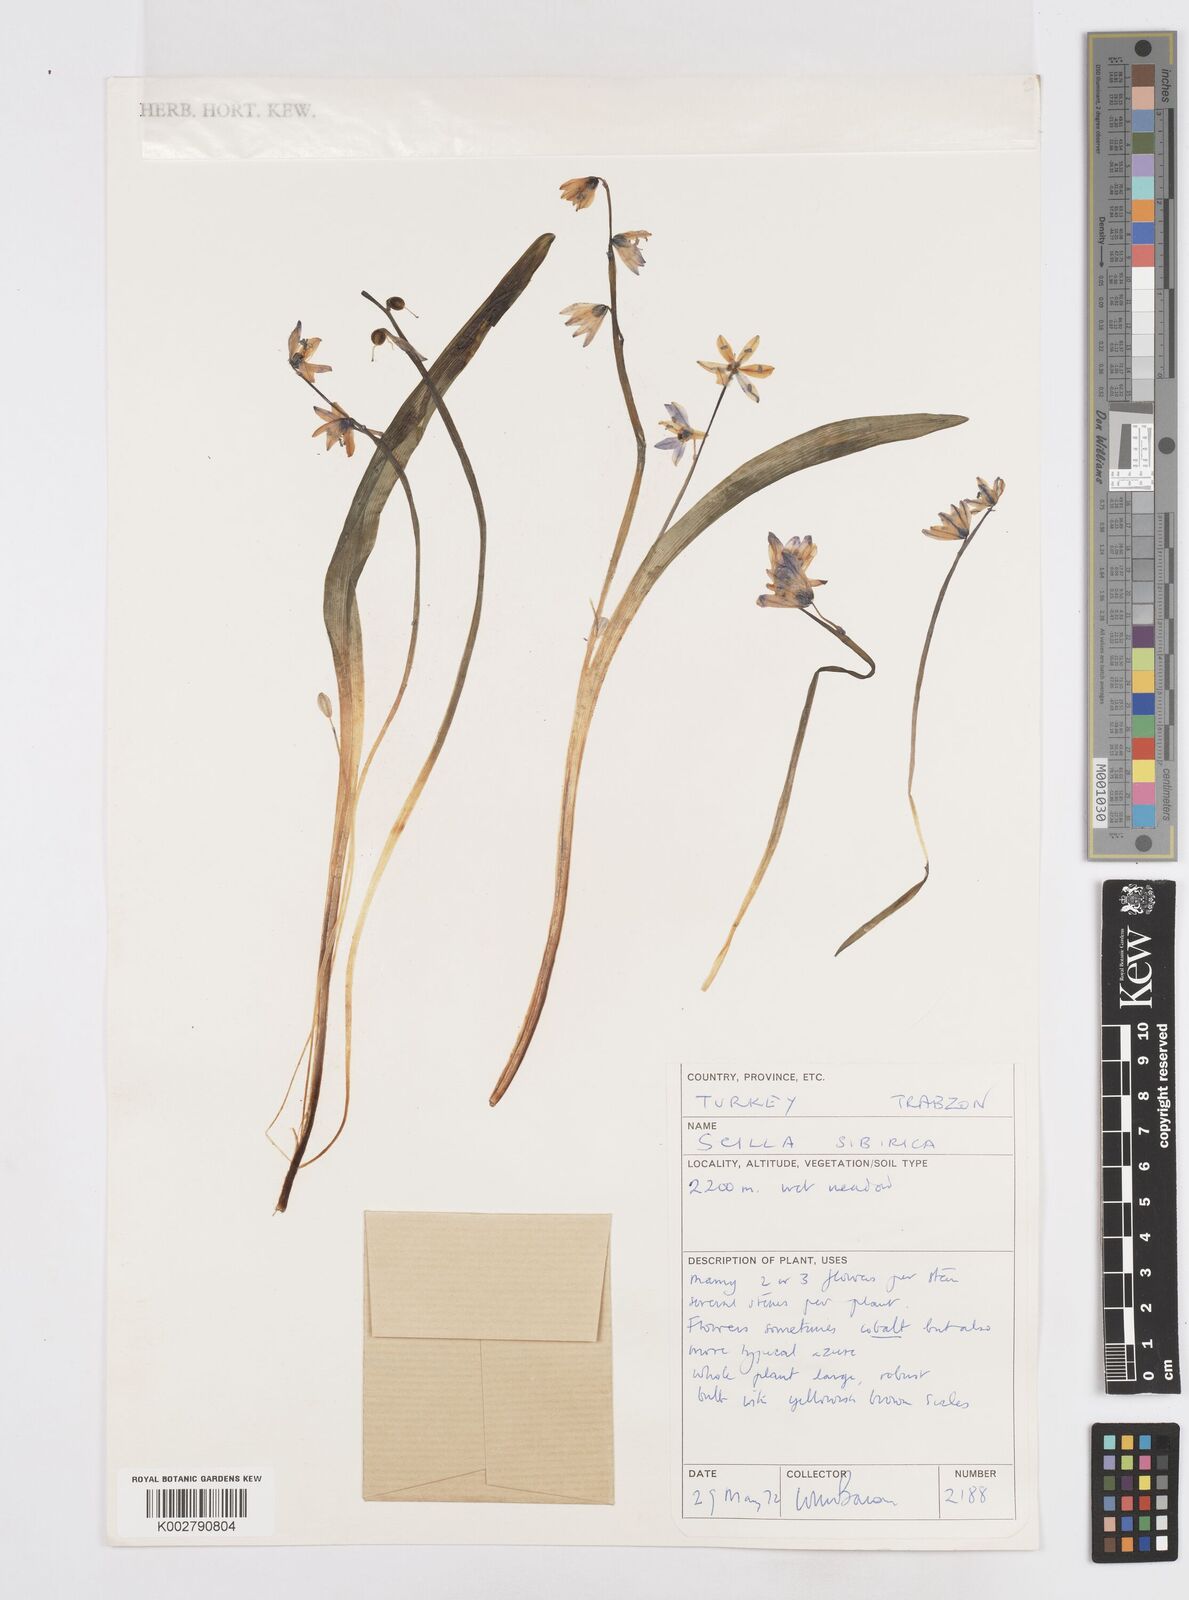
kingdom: Plantae
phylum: Tracheophyta
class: Liliopsida
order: Asparagales
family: Asparagaceae
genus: Scilla
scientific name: Scilla siberica
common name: Siberian squill
